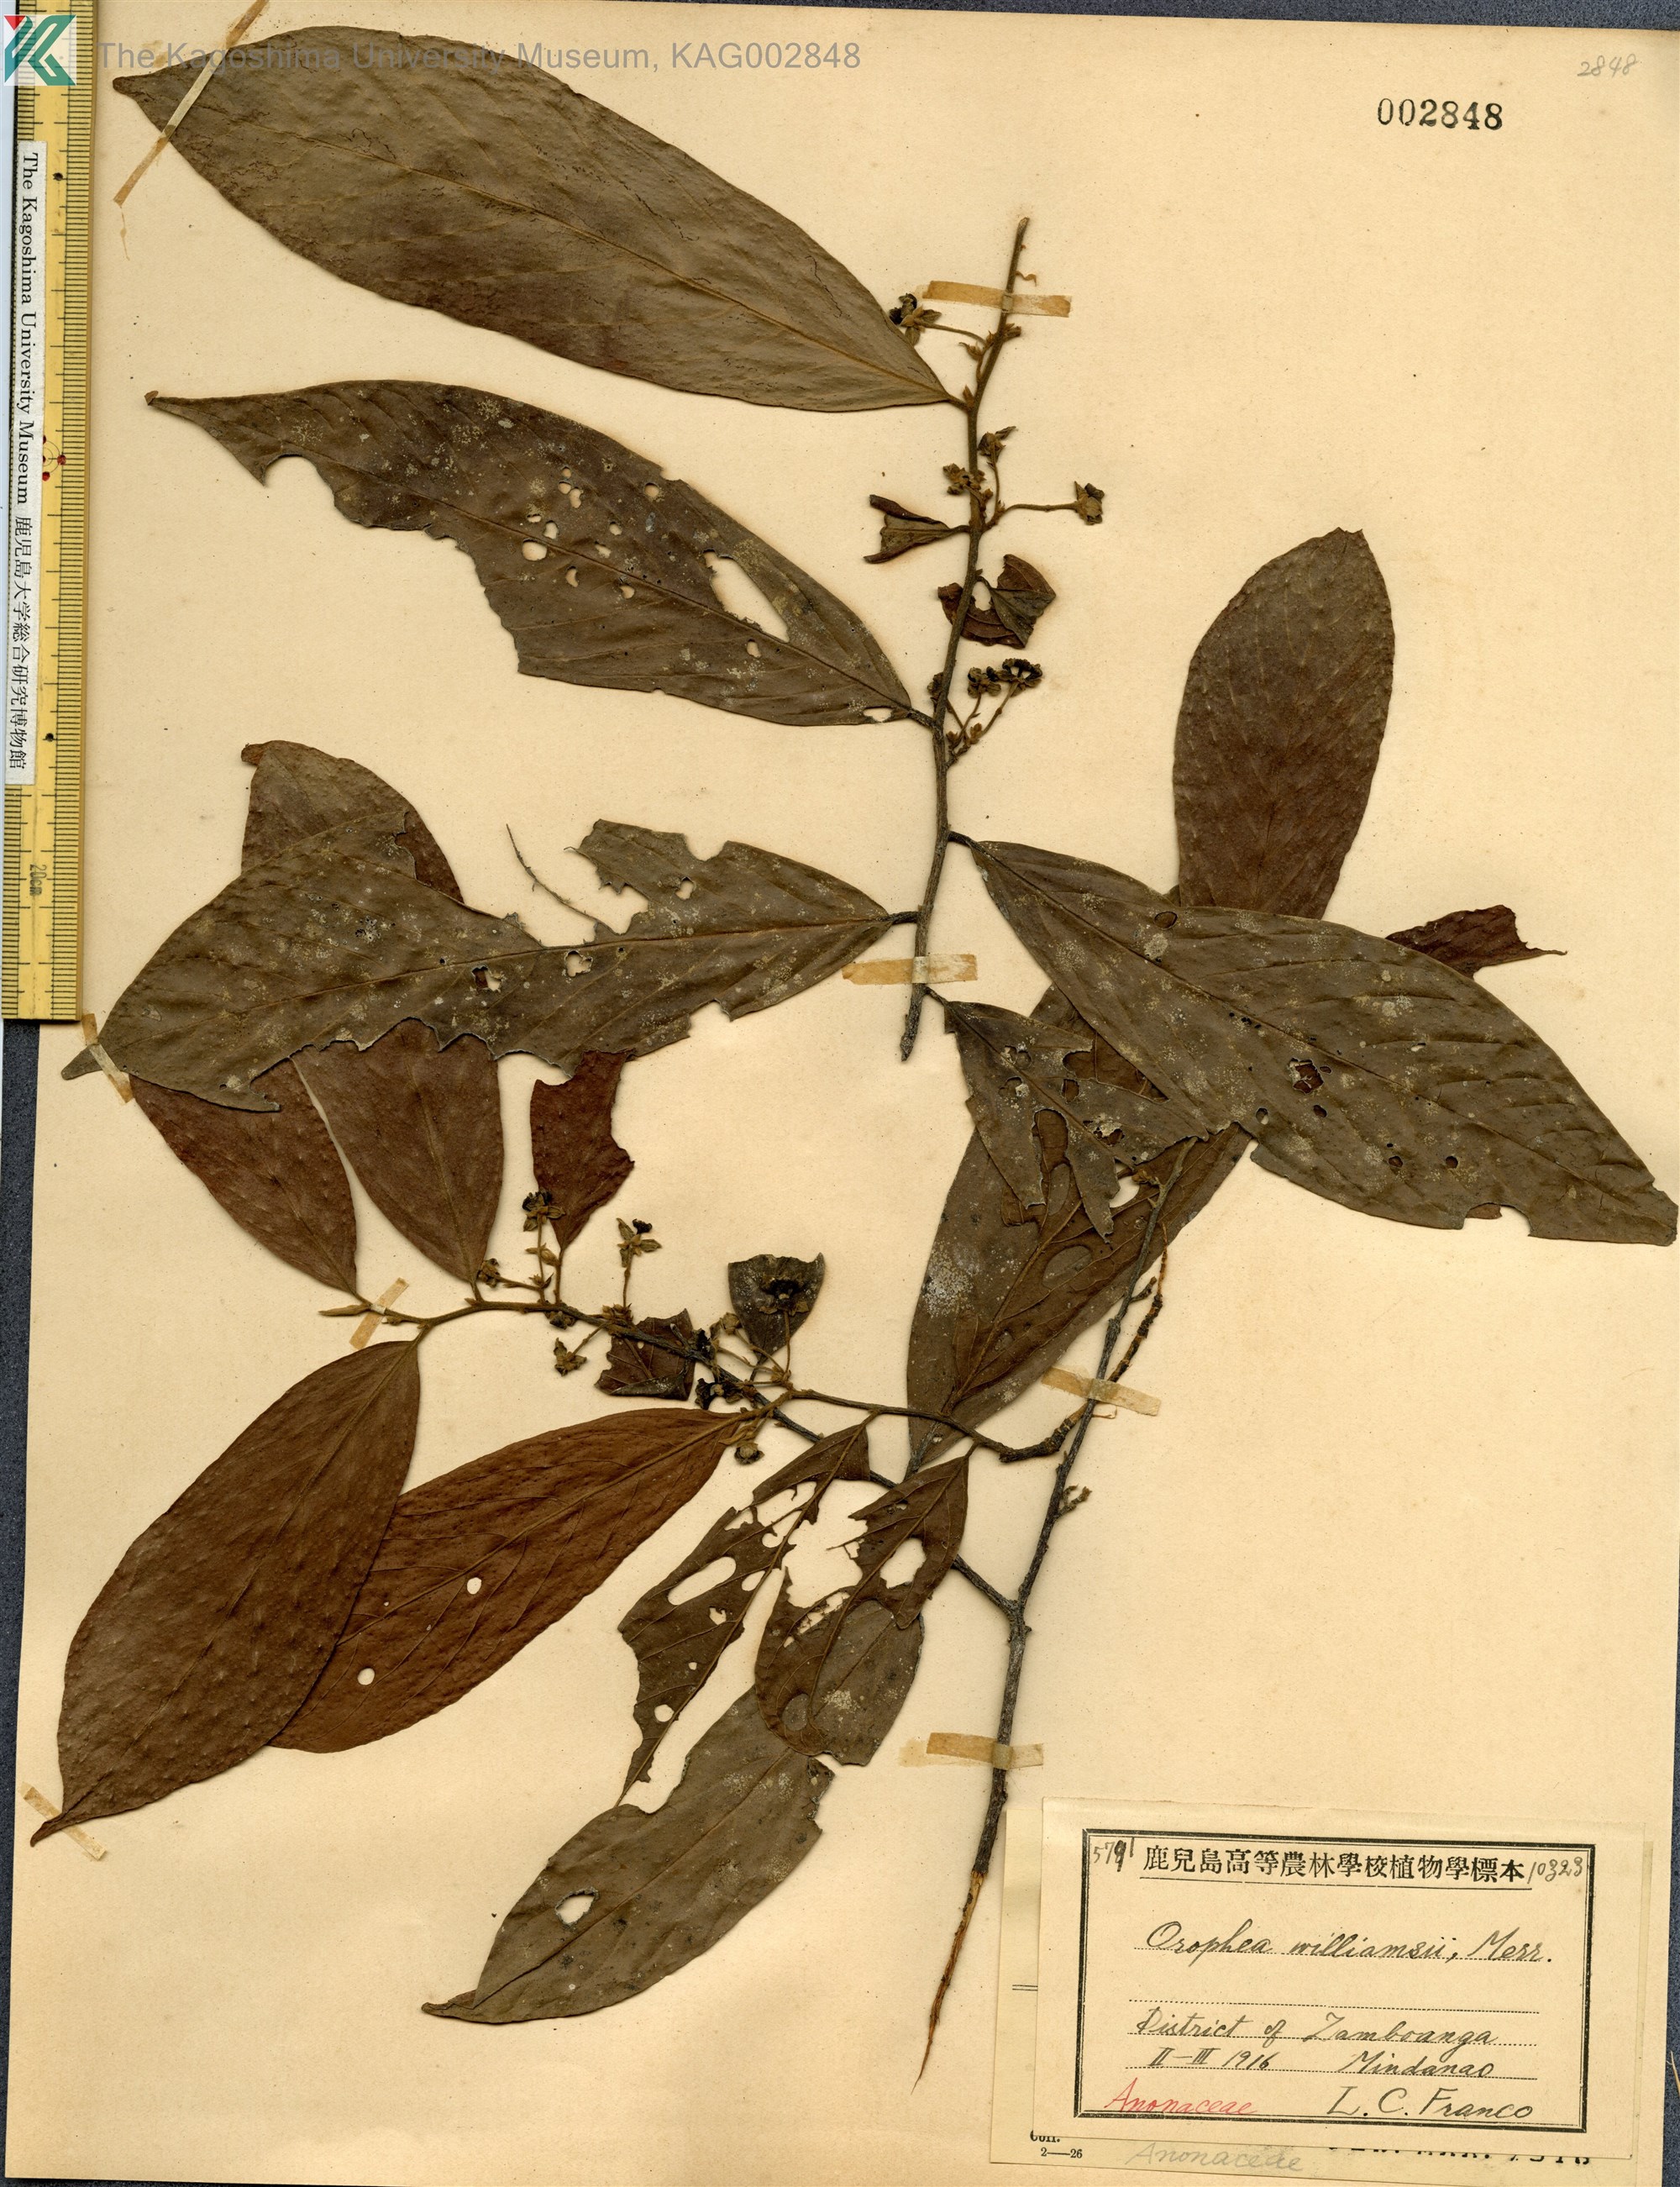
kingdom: Plantae
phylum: Tracheophyta
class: Magnoliopsida
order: Magnoliales
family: Annonaceae
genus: Orophea
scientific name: Orophea cumingiana
